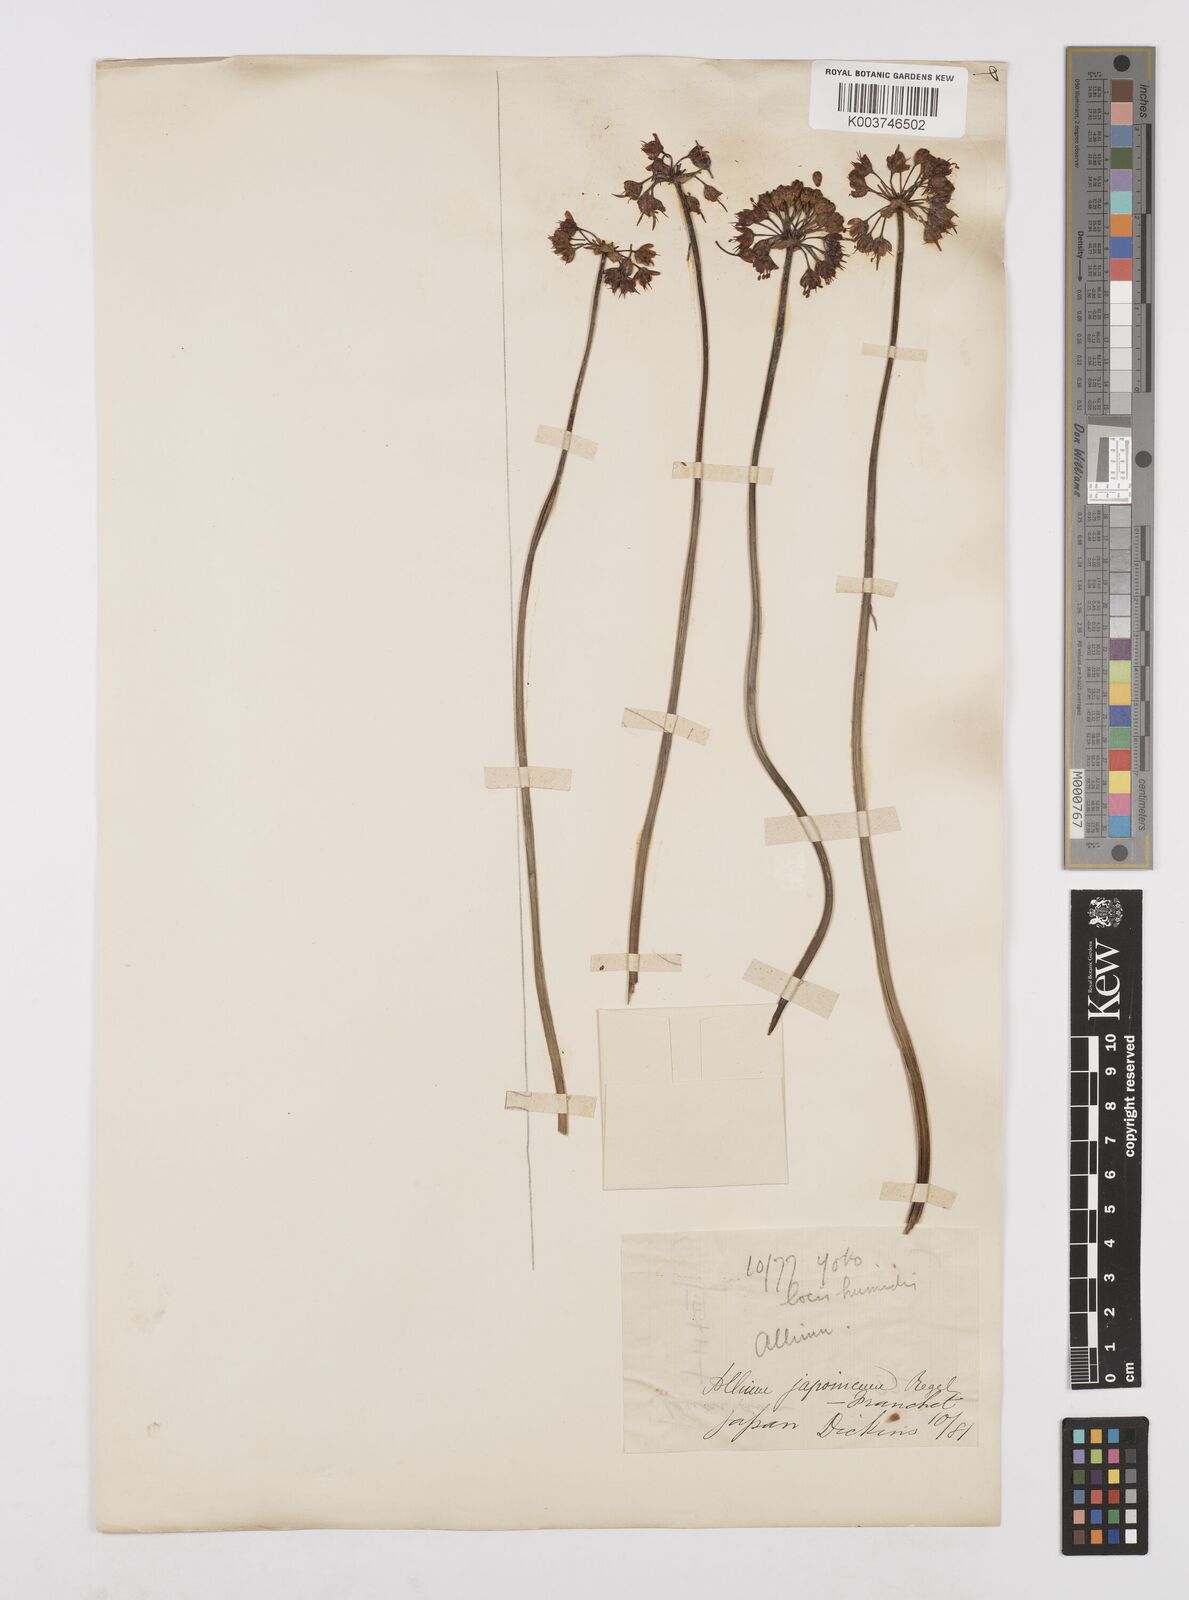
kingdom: Plantae
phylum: Tracheophyta
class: Liliopsida
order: Asparagales
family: Amaryllidaceae
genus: Allium
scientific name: Allium sacculiferum
